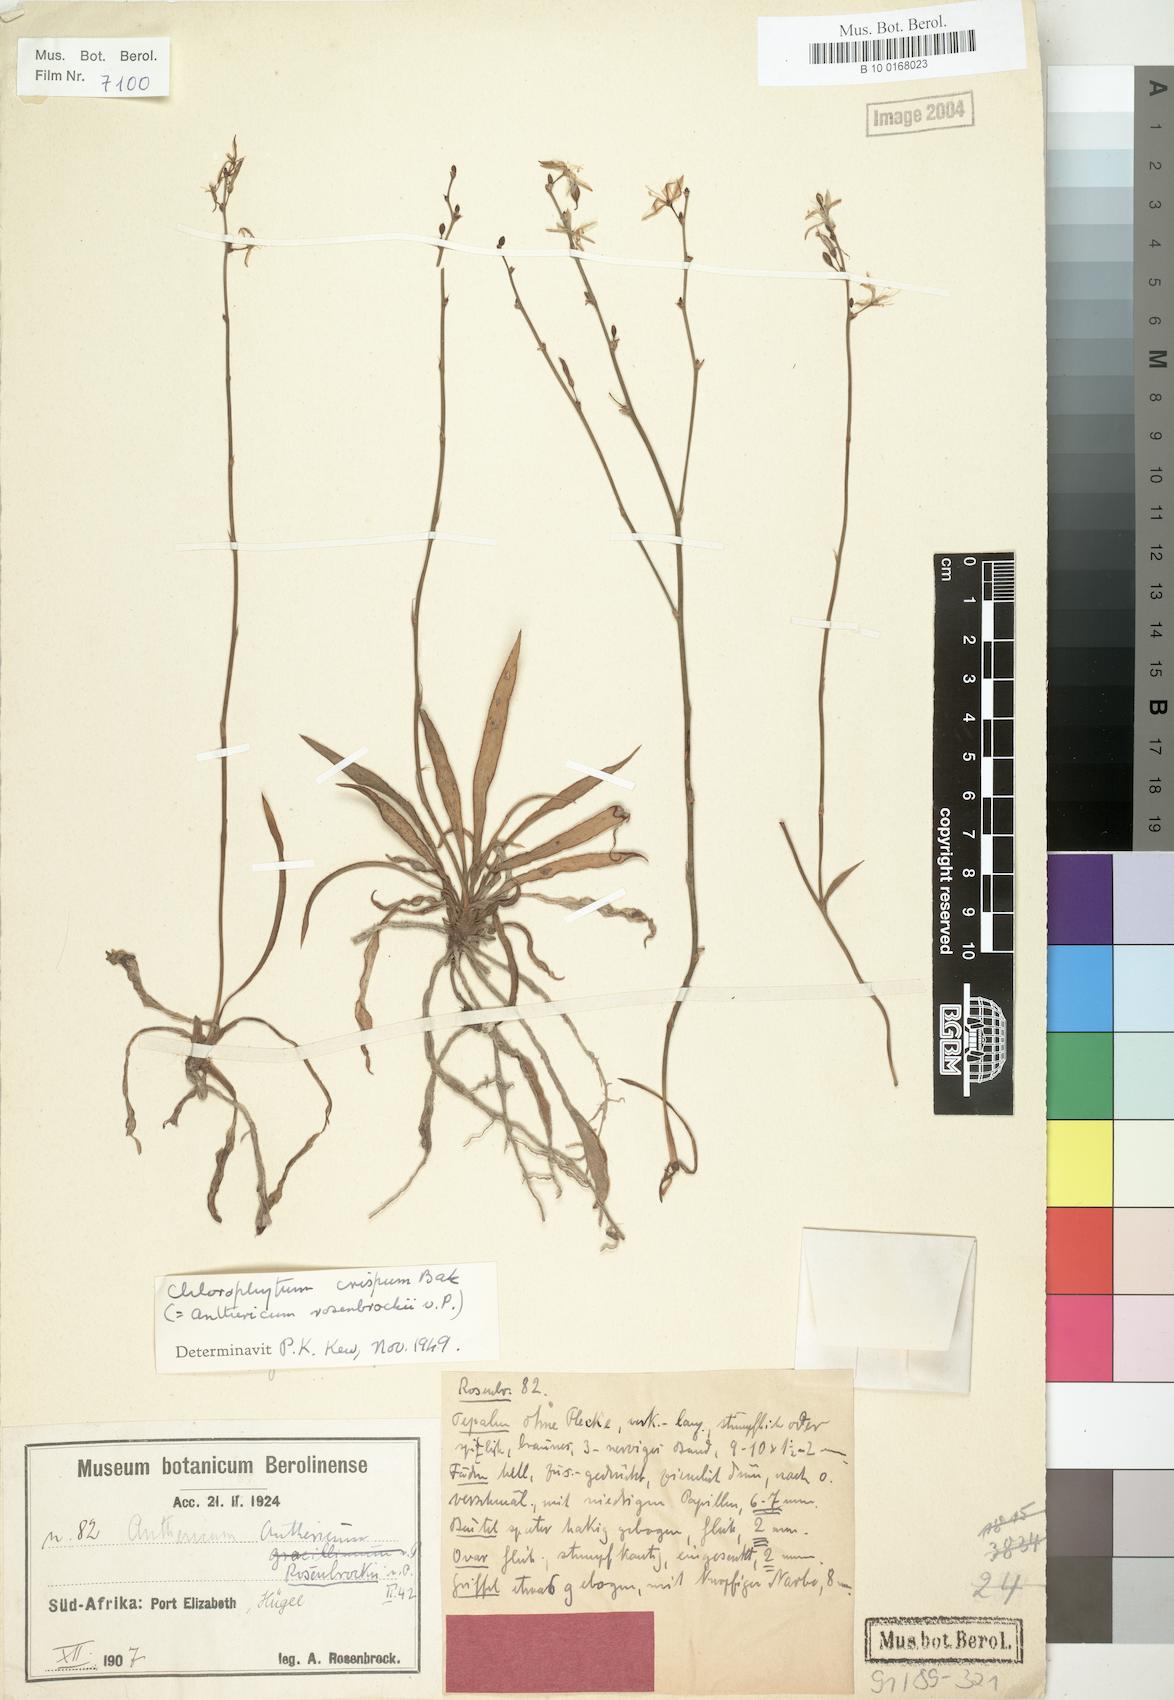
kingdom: Plantae
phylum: Tracheophyta
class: Liliopsida
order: Asparagales
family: Asparagaceae
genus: Chlorophytum
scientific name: Chlorophytum crispum
